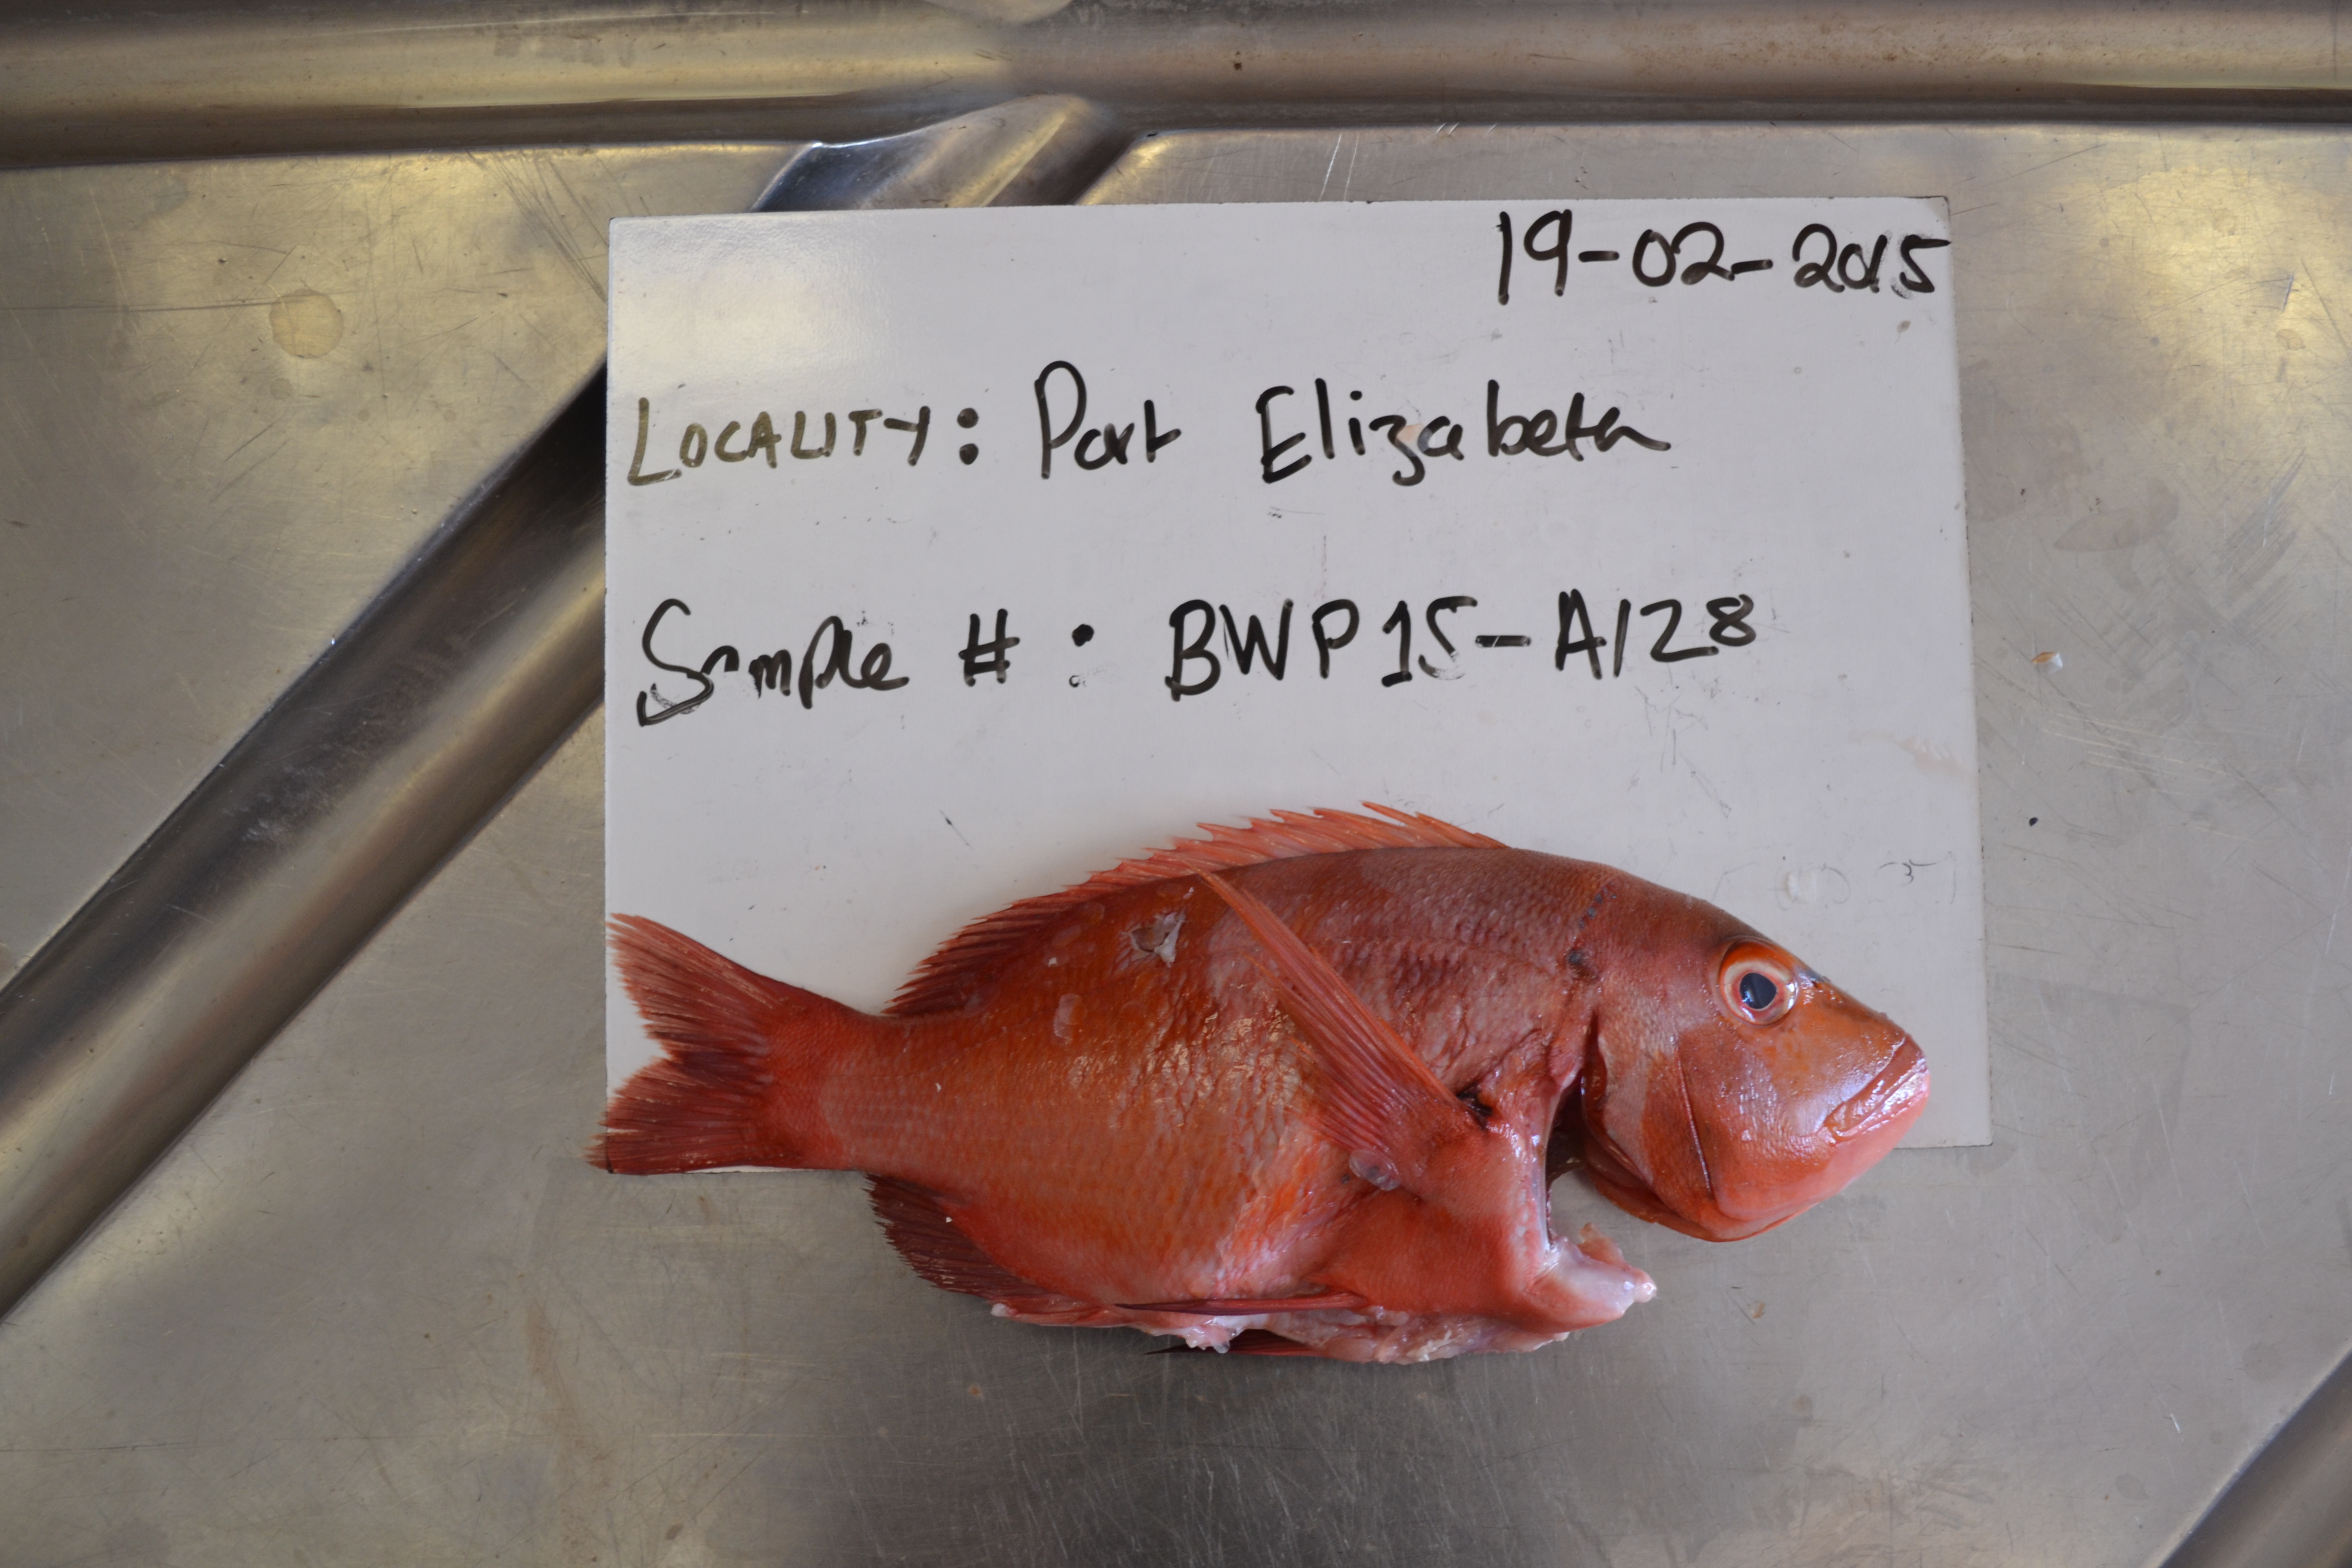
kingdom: Animalia
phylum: Chordata
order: Perciformes
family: Sparidae
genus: Chrysoblephus
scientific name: Chrysoblephus laticeps
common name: Roman seabream
